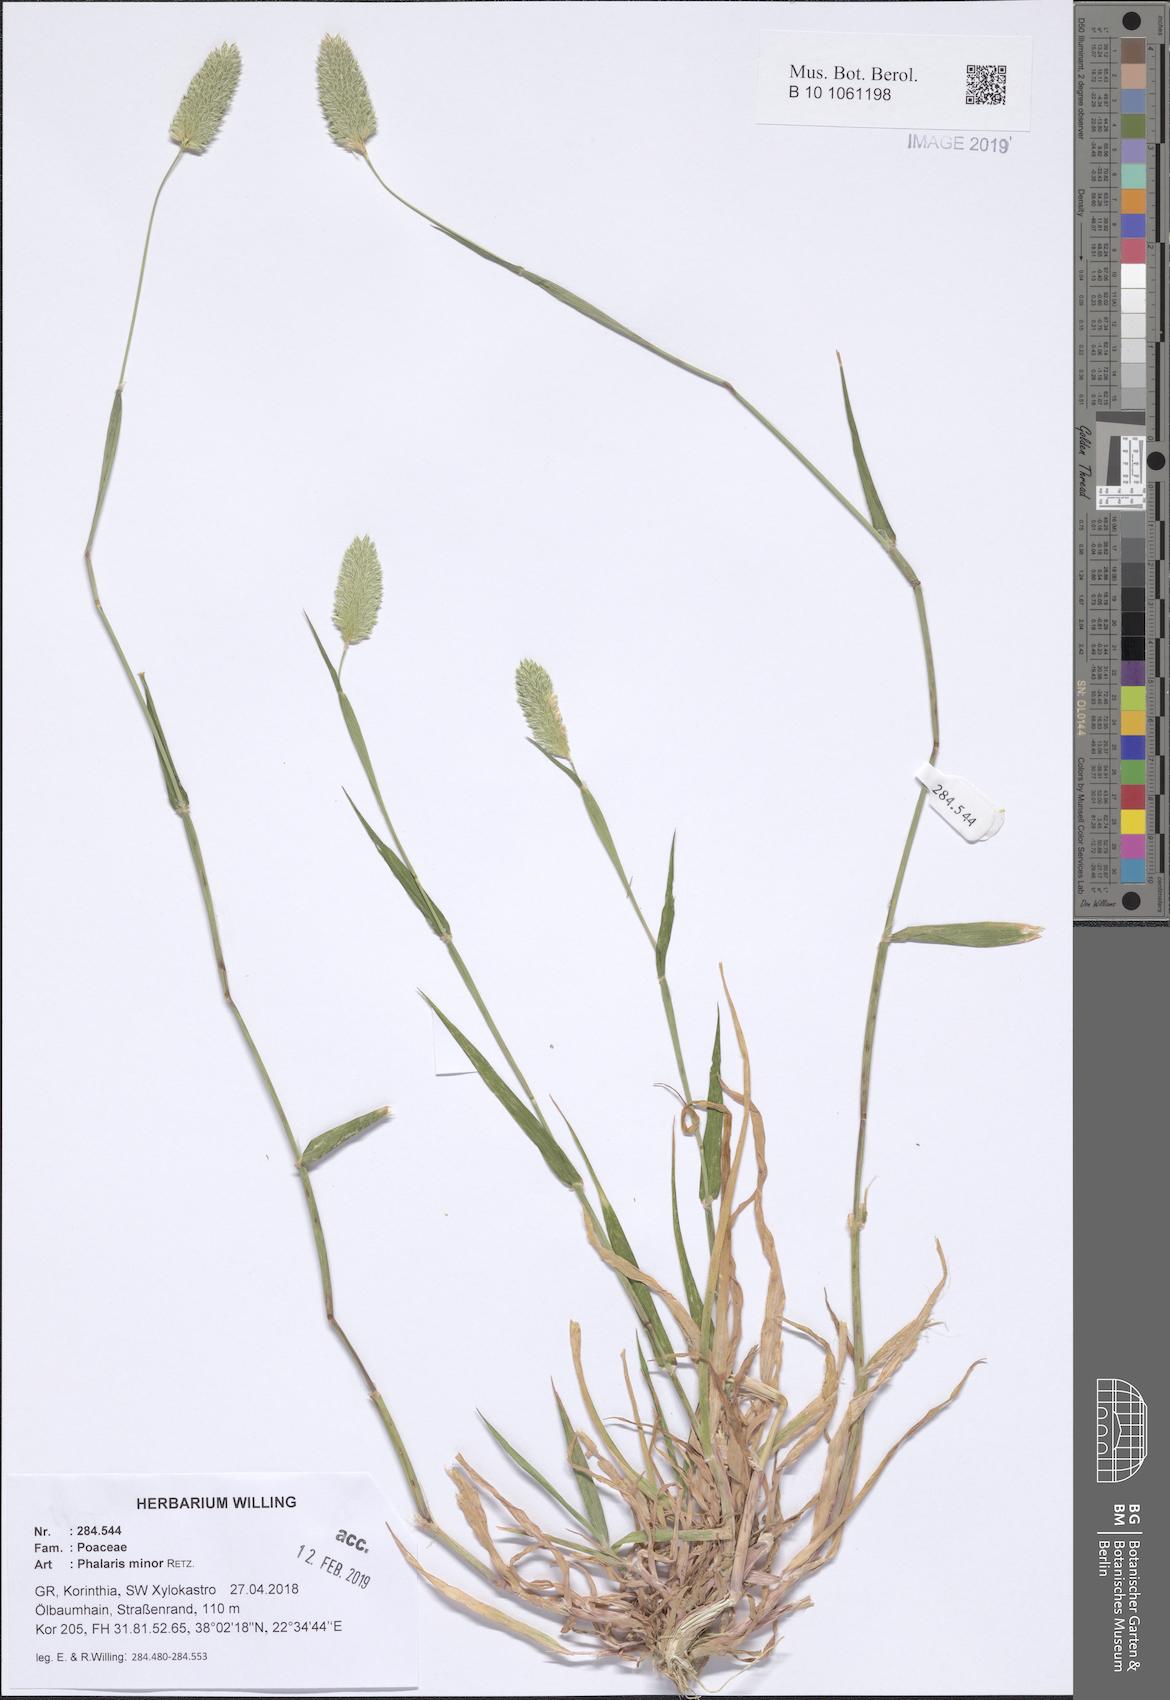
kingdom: Plantae
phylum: Tracheophyta
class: Liliopsida
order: Poales
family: Poaceae
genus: Phalaris
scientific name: Phalaris minor
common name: Littleseed canarygrass
